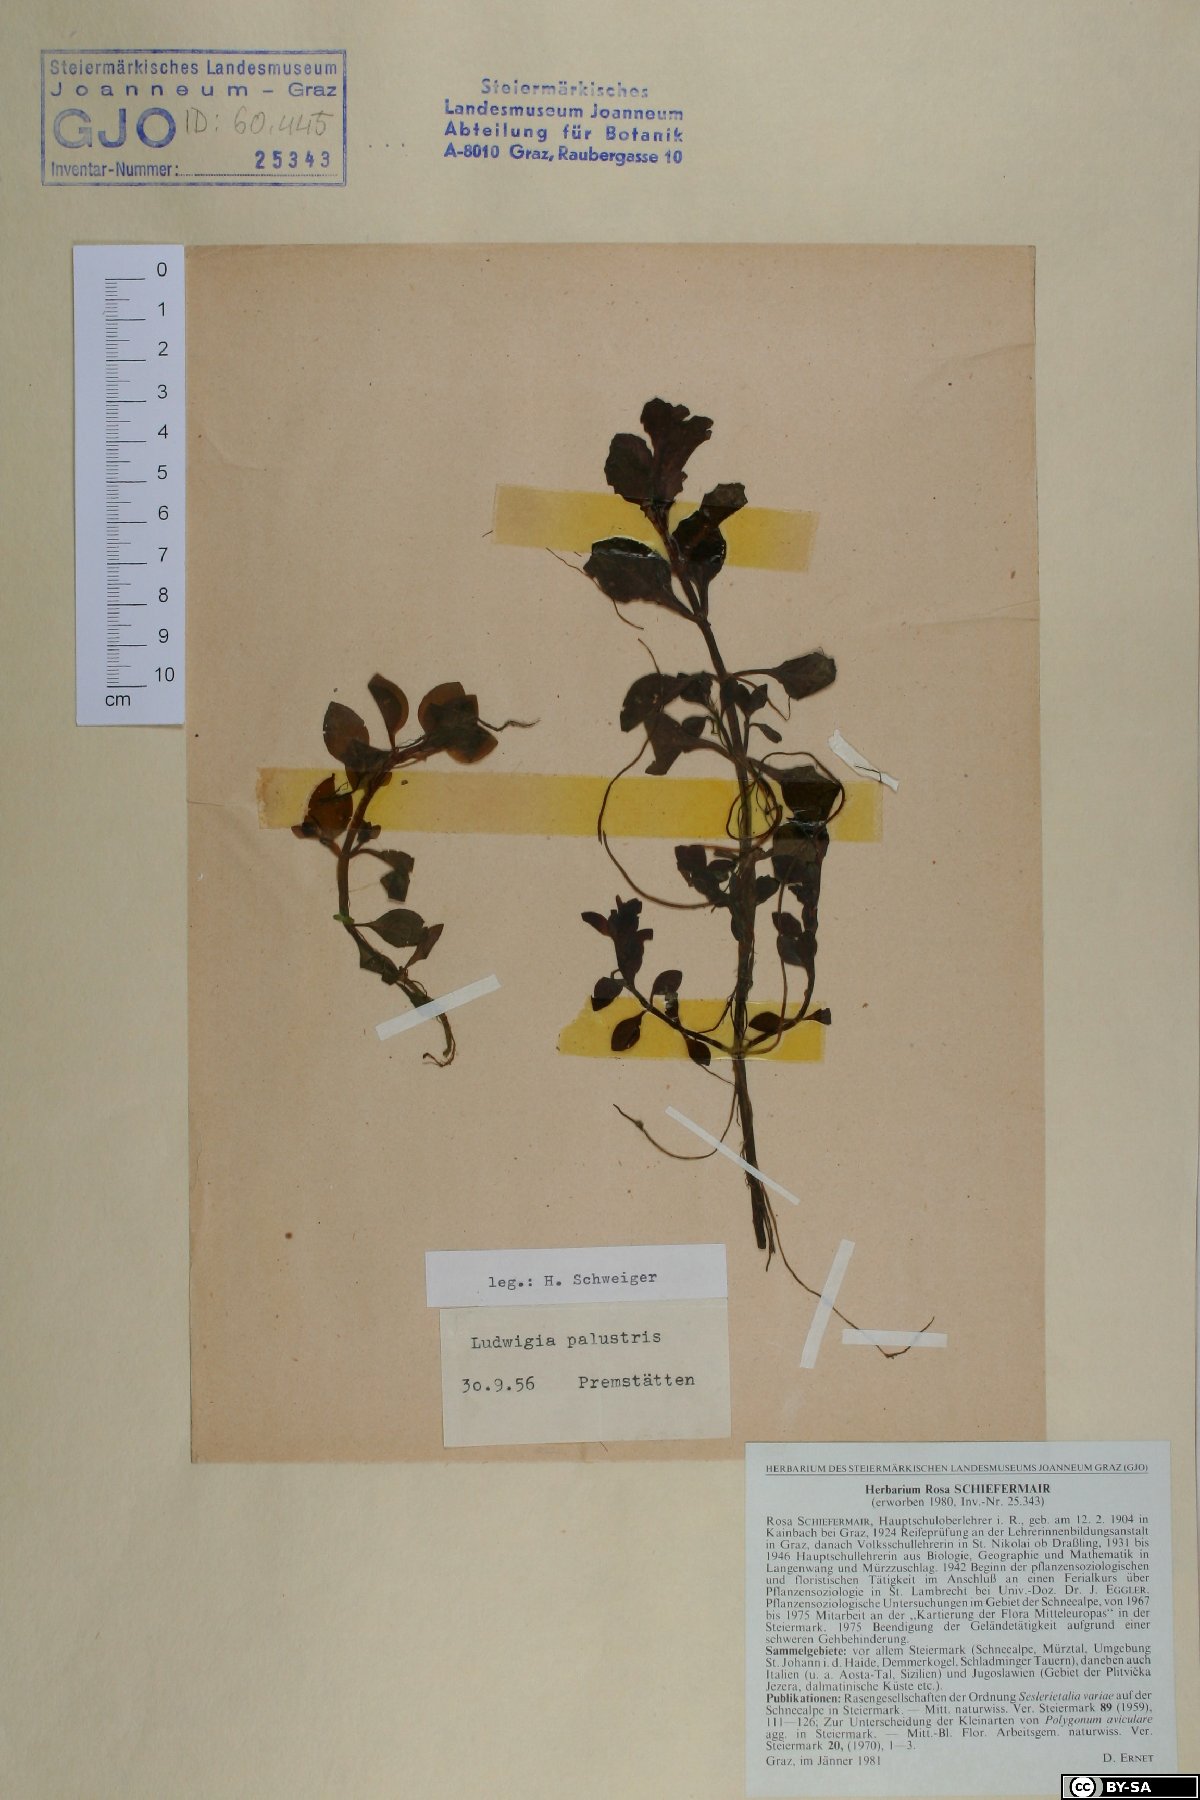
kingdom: Plantae
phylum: Tracheophyta
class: Magnoliopsida
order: Myrtales
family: Onagraceae
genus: Ludwigia
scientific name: Ludwigia palustris
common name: Hampshire-purslane
